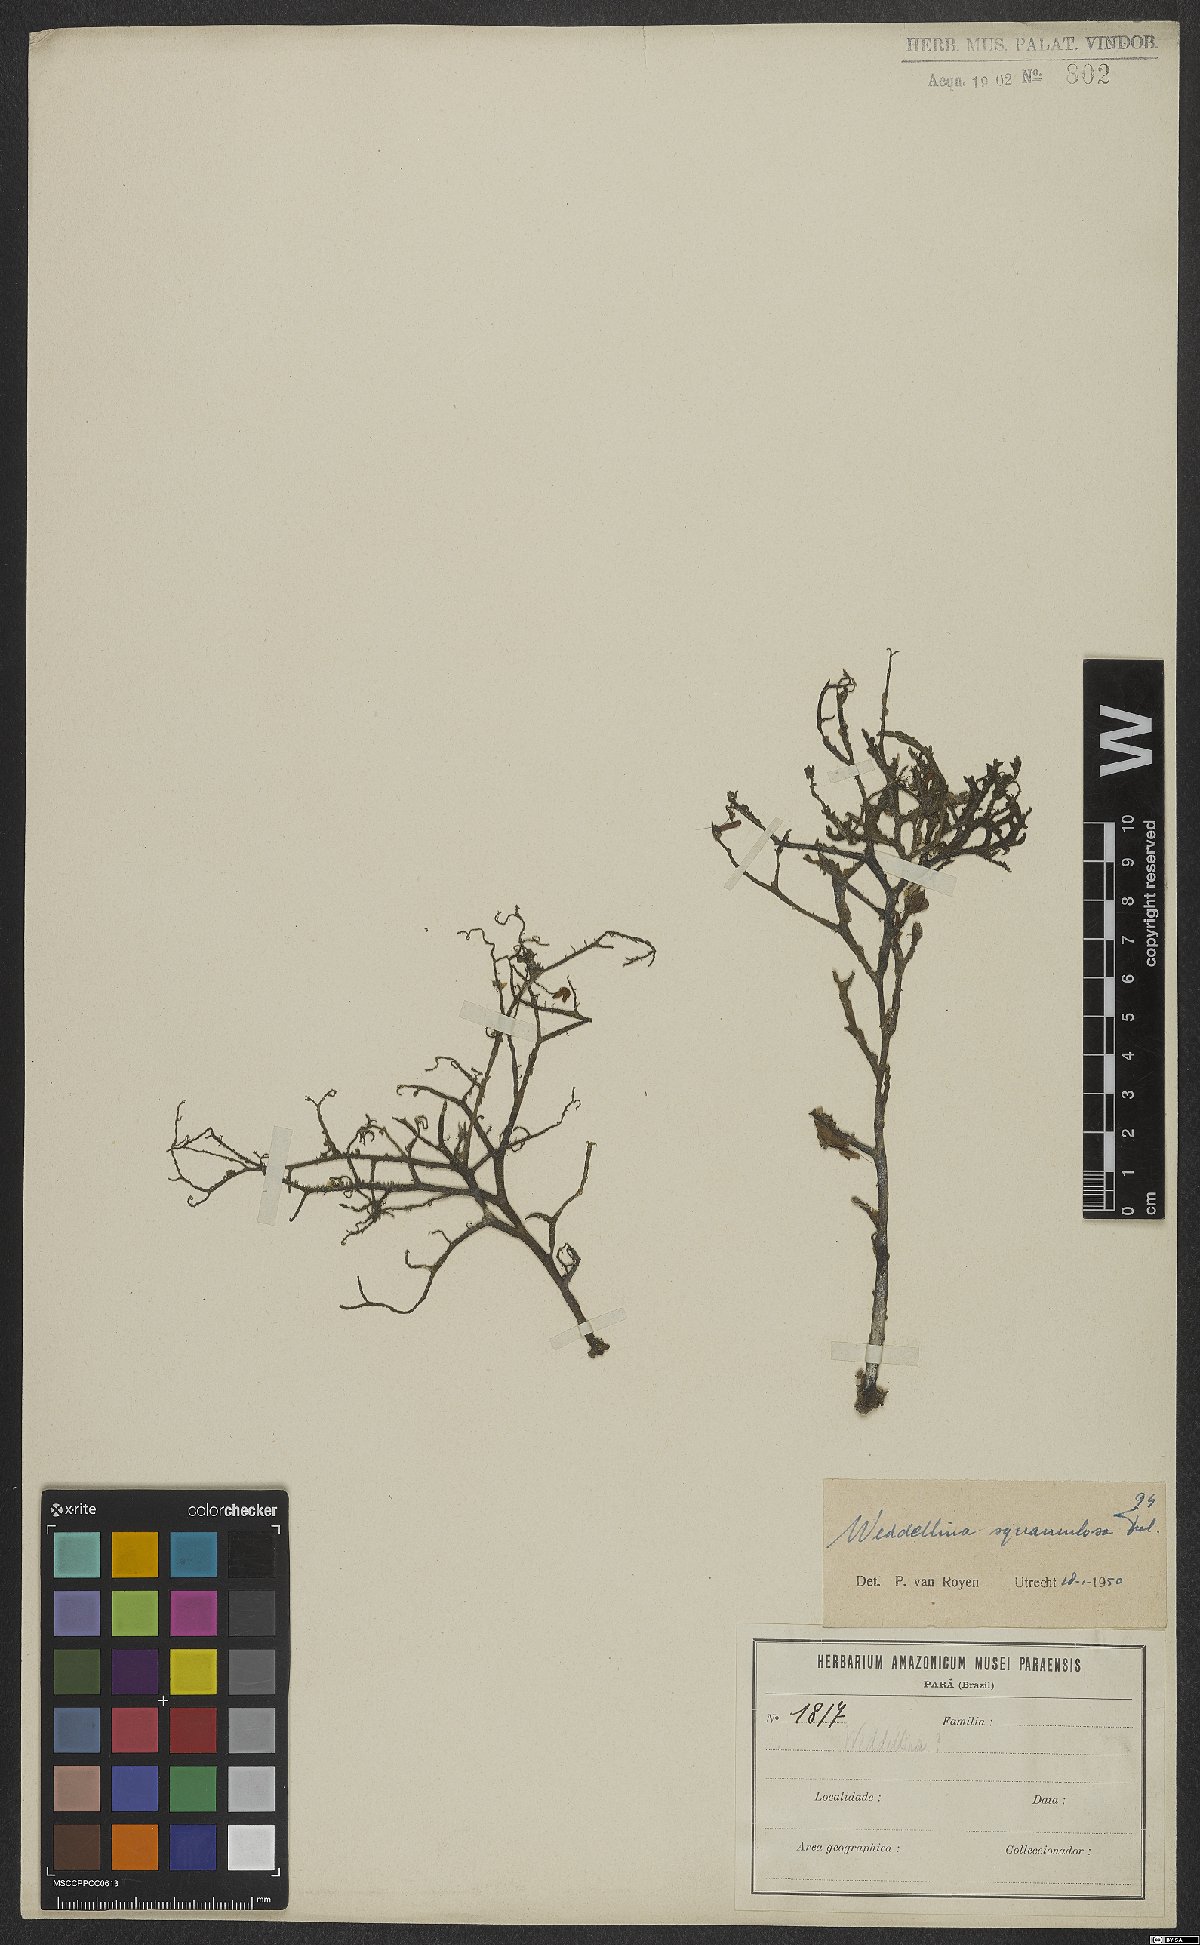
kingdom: Plantae
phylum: Tracheophyta
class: Magnoliopsida
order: Malpighiales
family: Podostemaceae
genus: Weddellina
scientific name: Weddellina squamulosa
